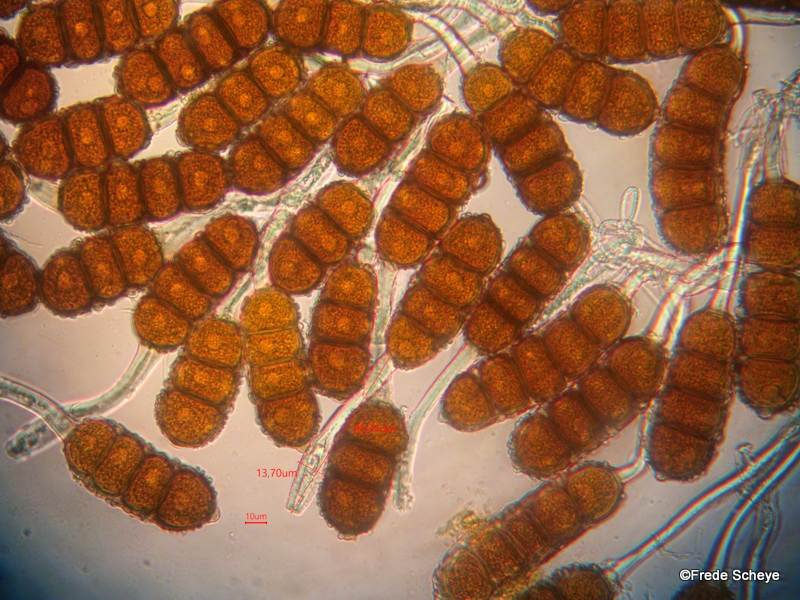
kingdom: Fungi
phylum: Basidiomycota
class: Pucciniomycetes
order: Pucciniales
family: Phragmidiaceae
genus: Phragmidium
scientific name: Phragmidium violaceum
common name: violet flercellerust
